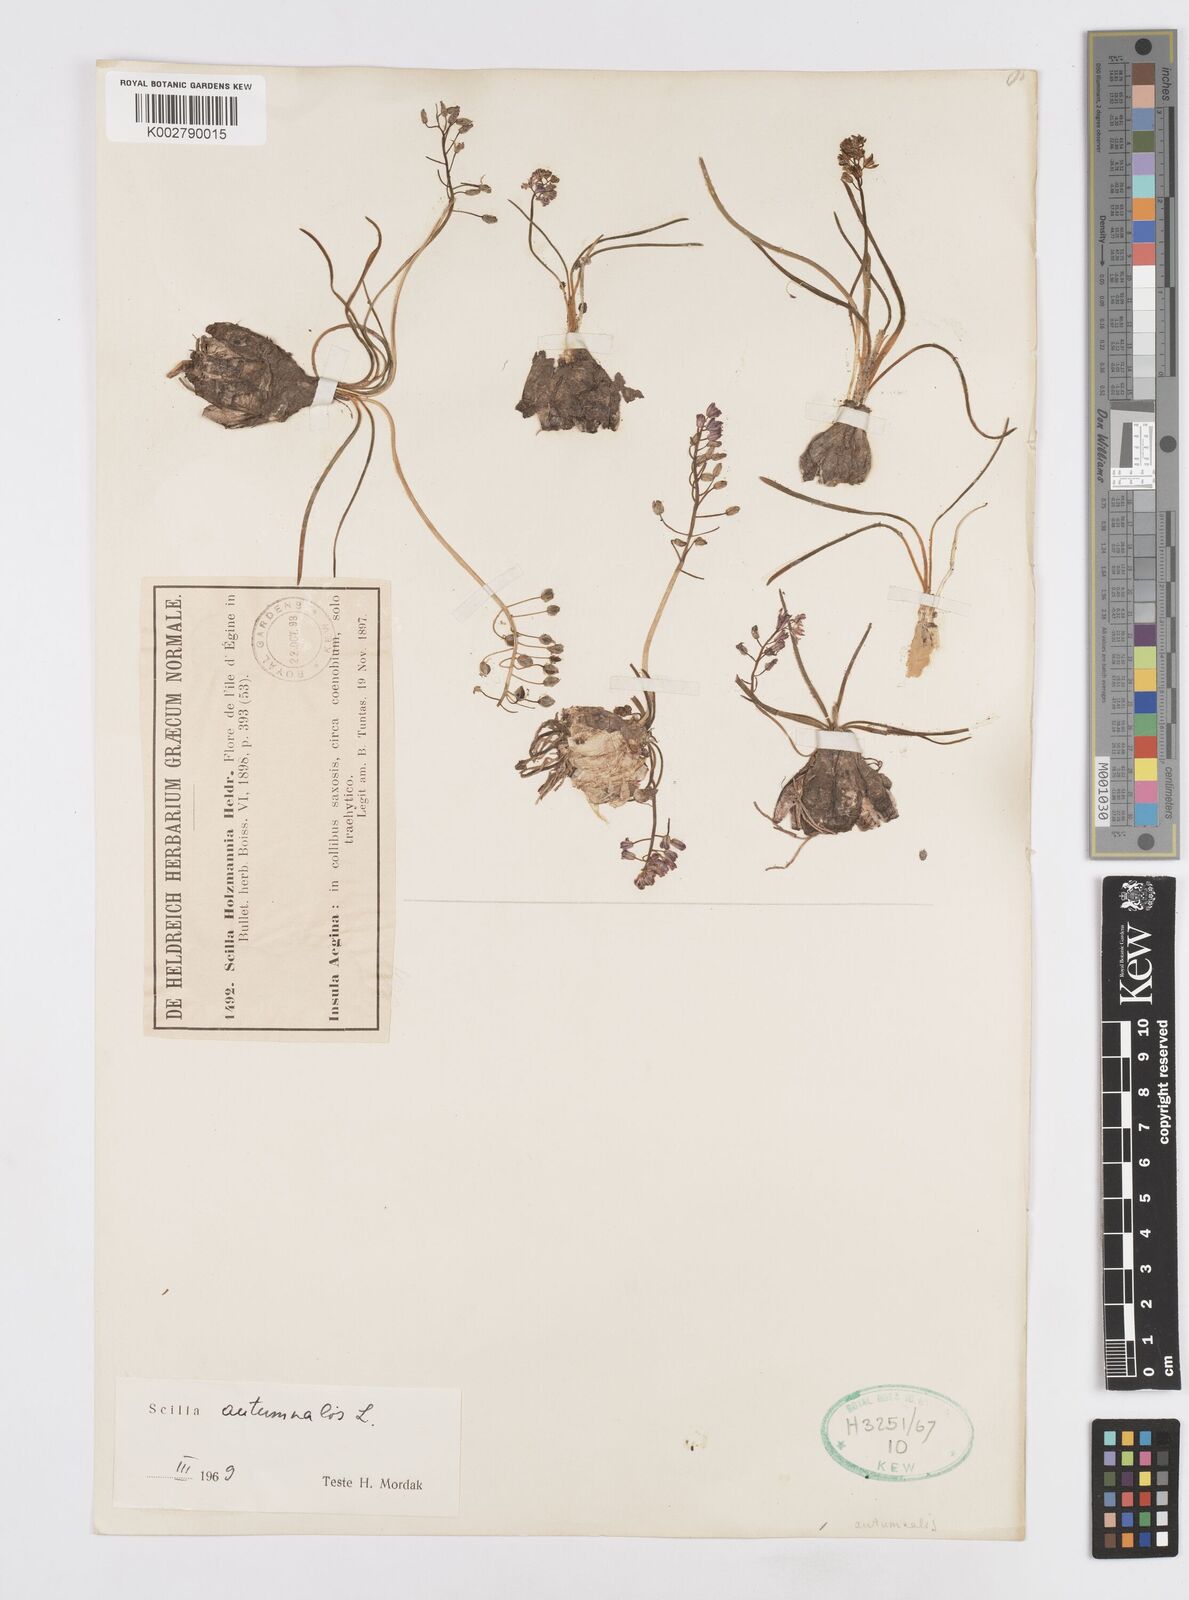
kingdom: Plantae
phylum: Tracheophyta
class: Liliopsida
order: Asparagales
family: Asparagaceae
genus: Prospero
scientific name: Prospero autumnale
